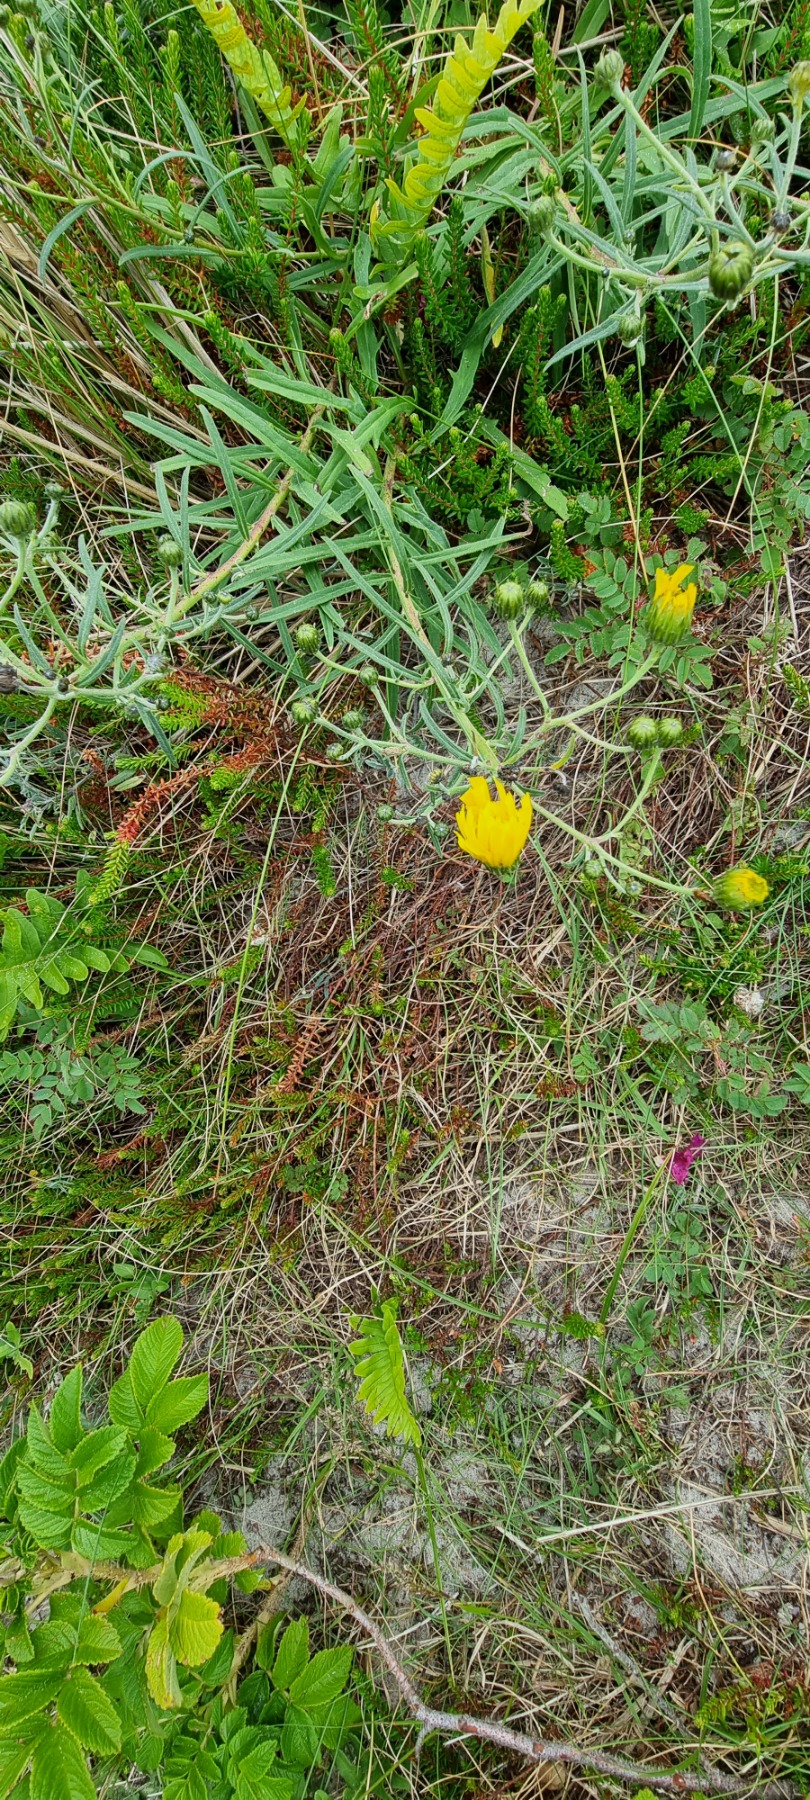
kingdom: Plantae
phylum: Tracheophyta
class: Magnoliopsida
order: Asterales
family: Asteraceae
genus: Hieracium
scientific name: Hieracium umbellatum
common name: Smalbladet høgeurt
